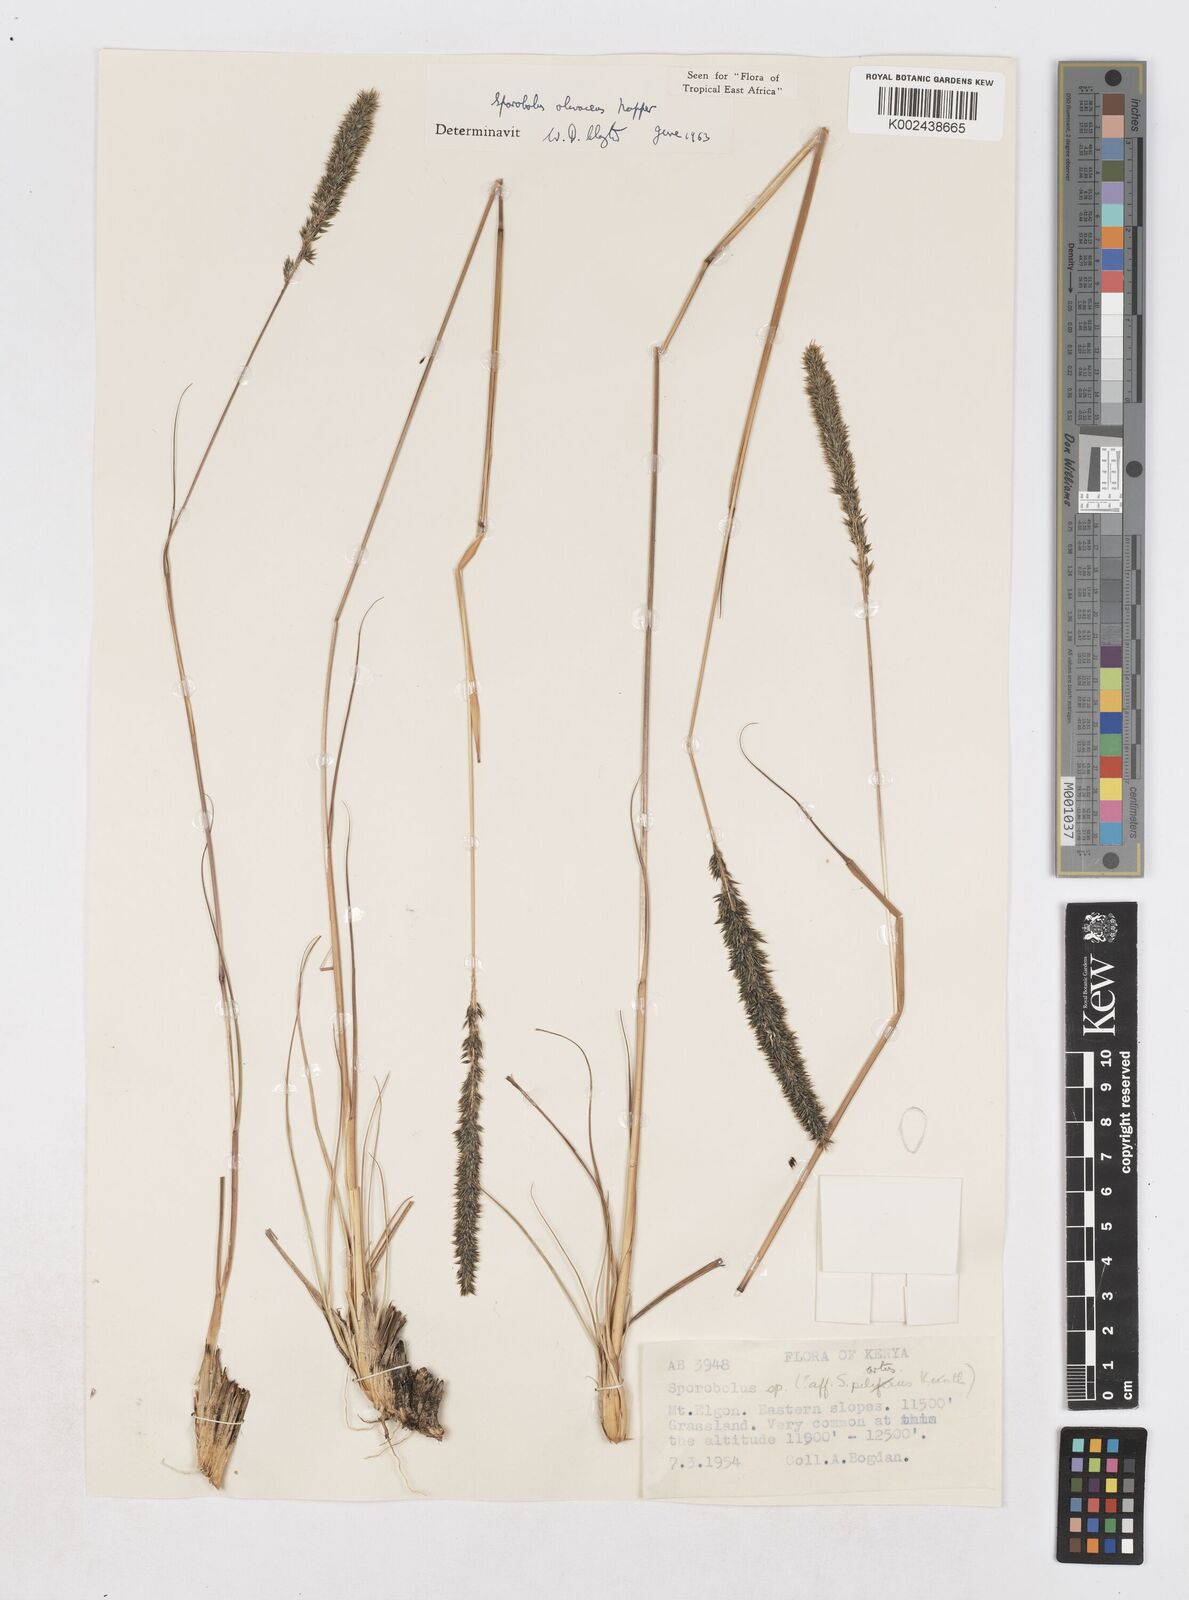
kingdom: Plantae
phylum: Tracheophyta
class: Liliopsida
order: Poales
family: Poaceae
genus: Sporobolus
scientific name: Sporobolus olivaceus
